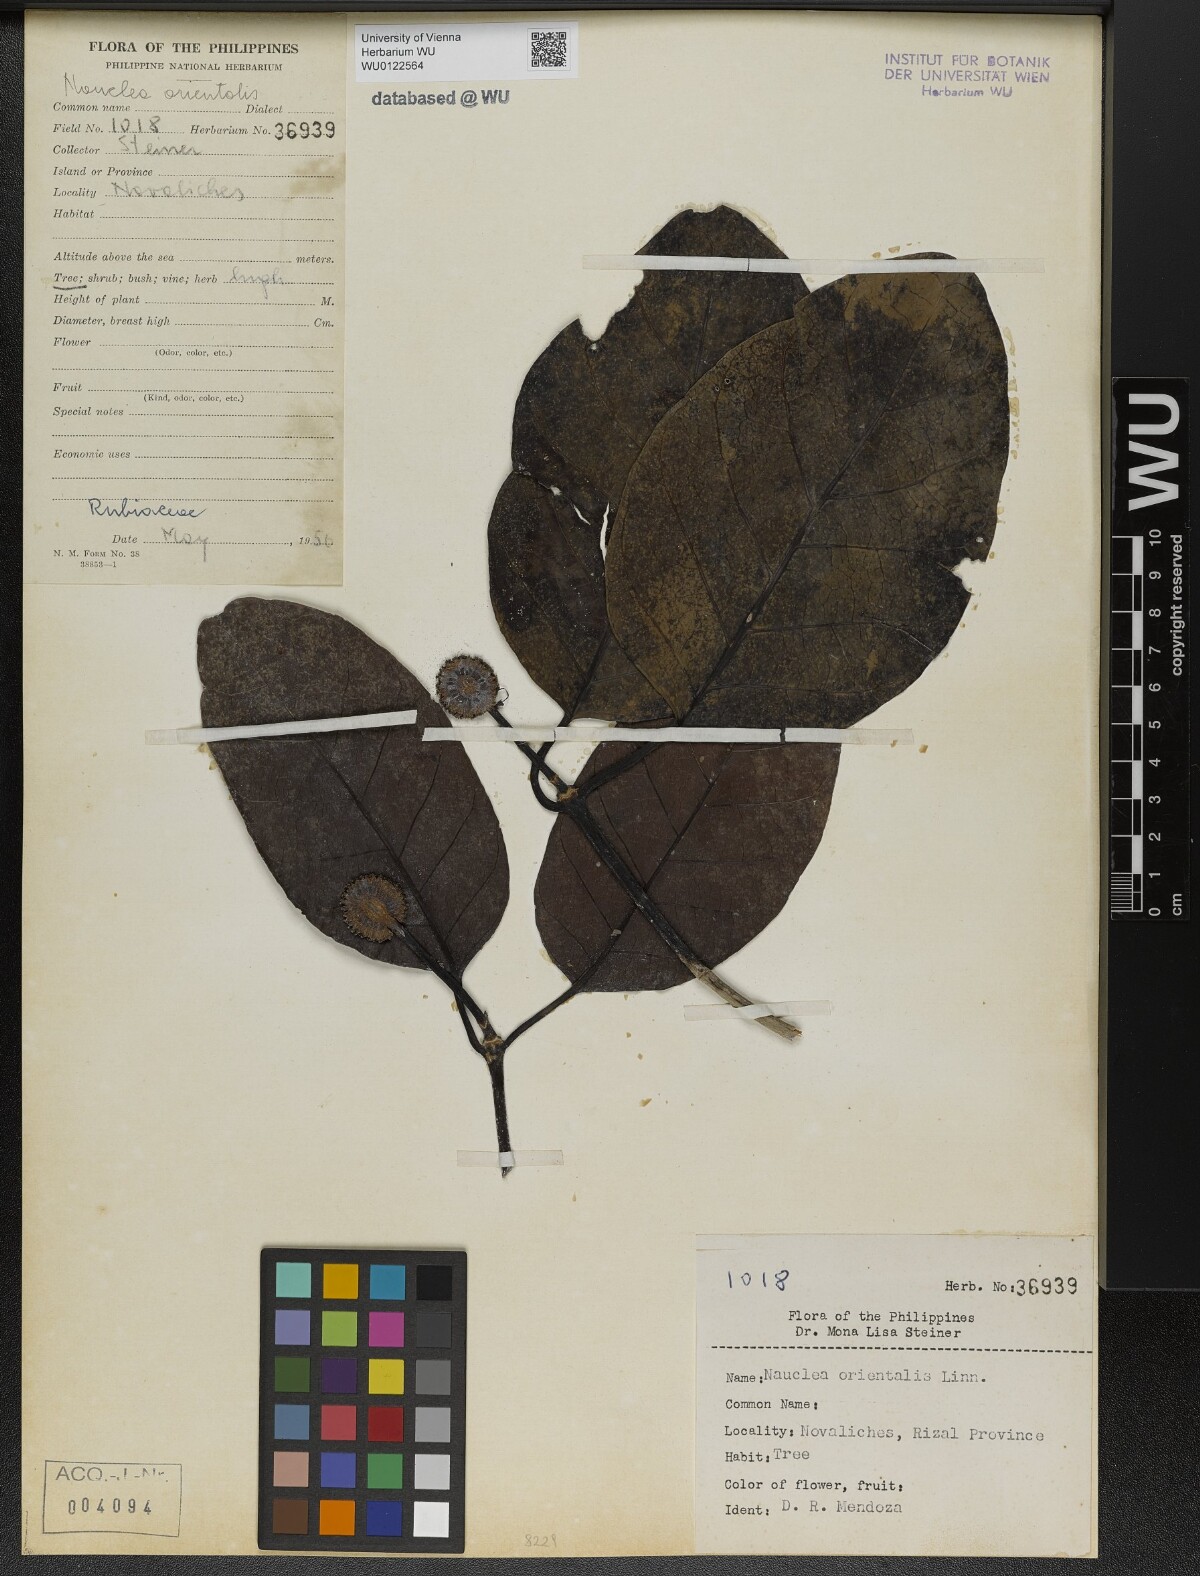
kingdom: Plantae
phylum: Tracheophyta
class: Magnoliopsida
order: Gentianales
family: Rubiaceae
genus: Nauclea
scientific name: Nauclea orientalis
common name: Leichhardt-pine
